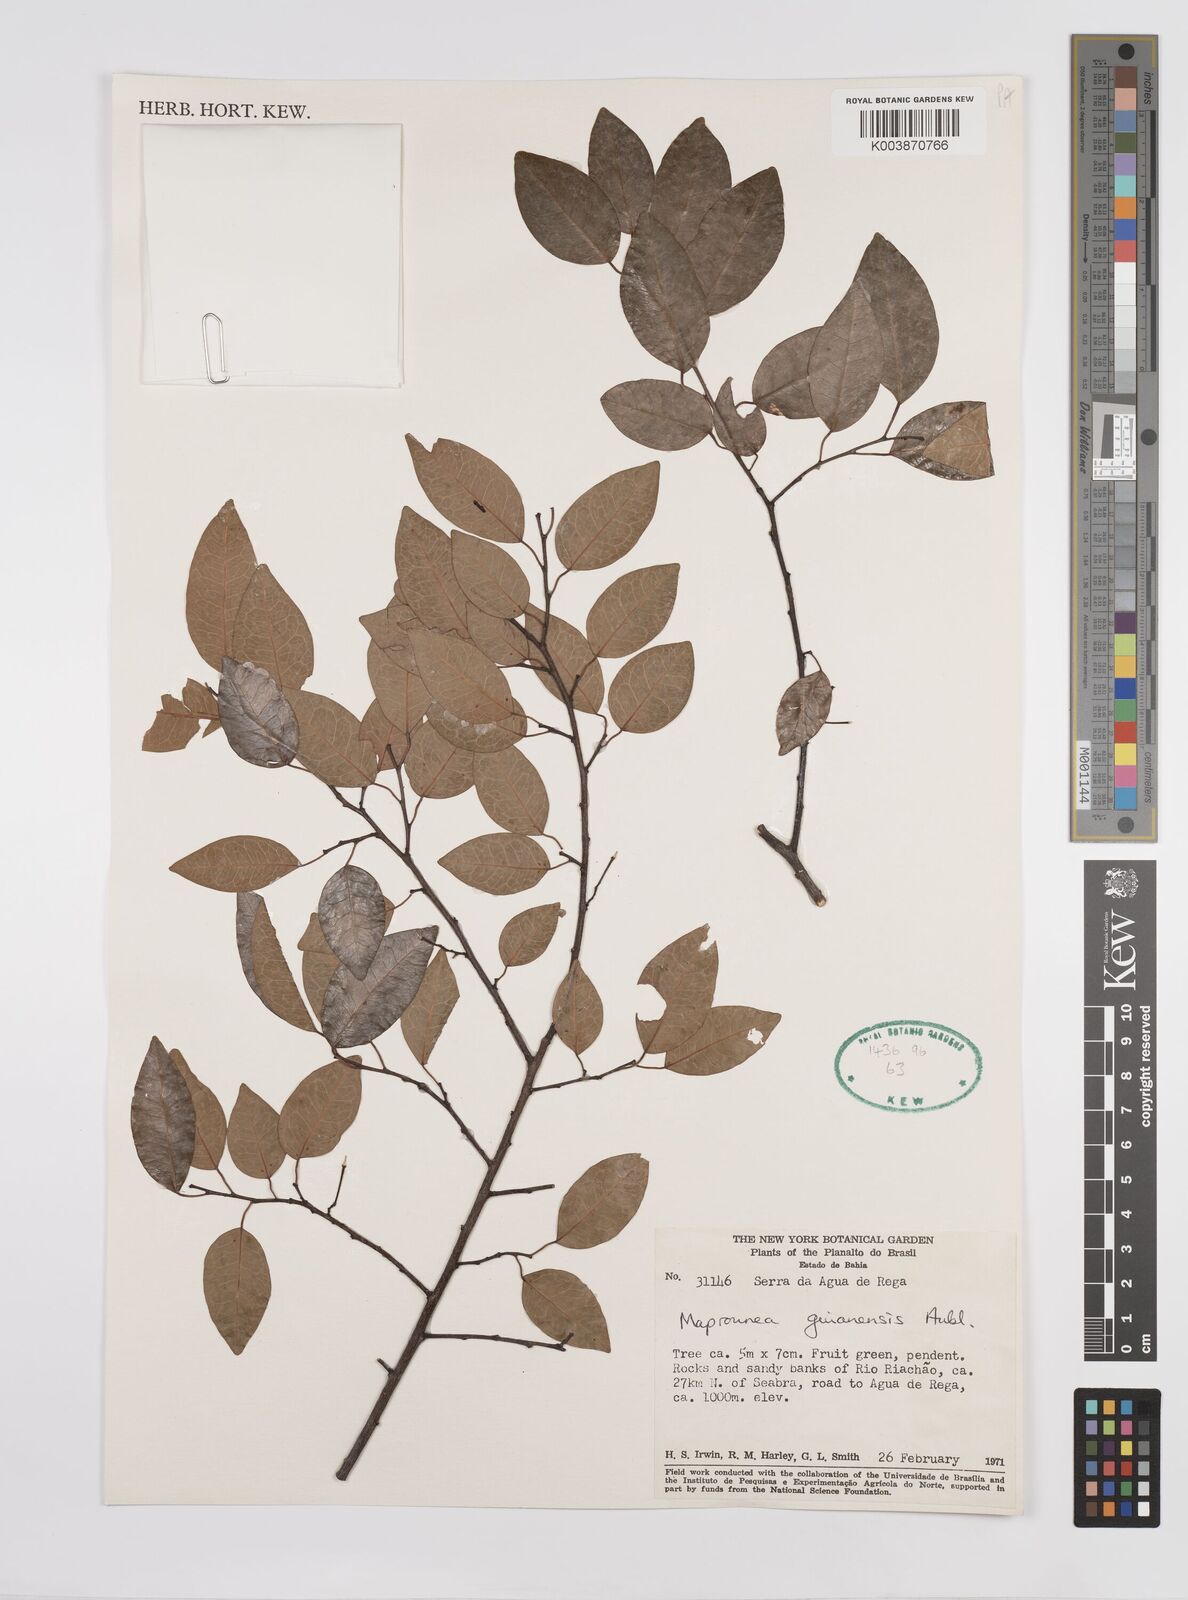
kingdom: Plantae
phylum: Tracheophyta
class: Magnoliopsida
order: Malpighiales
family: Euphorbiaceae
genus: Maprounea
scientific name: Maprounea guianensis
